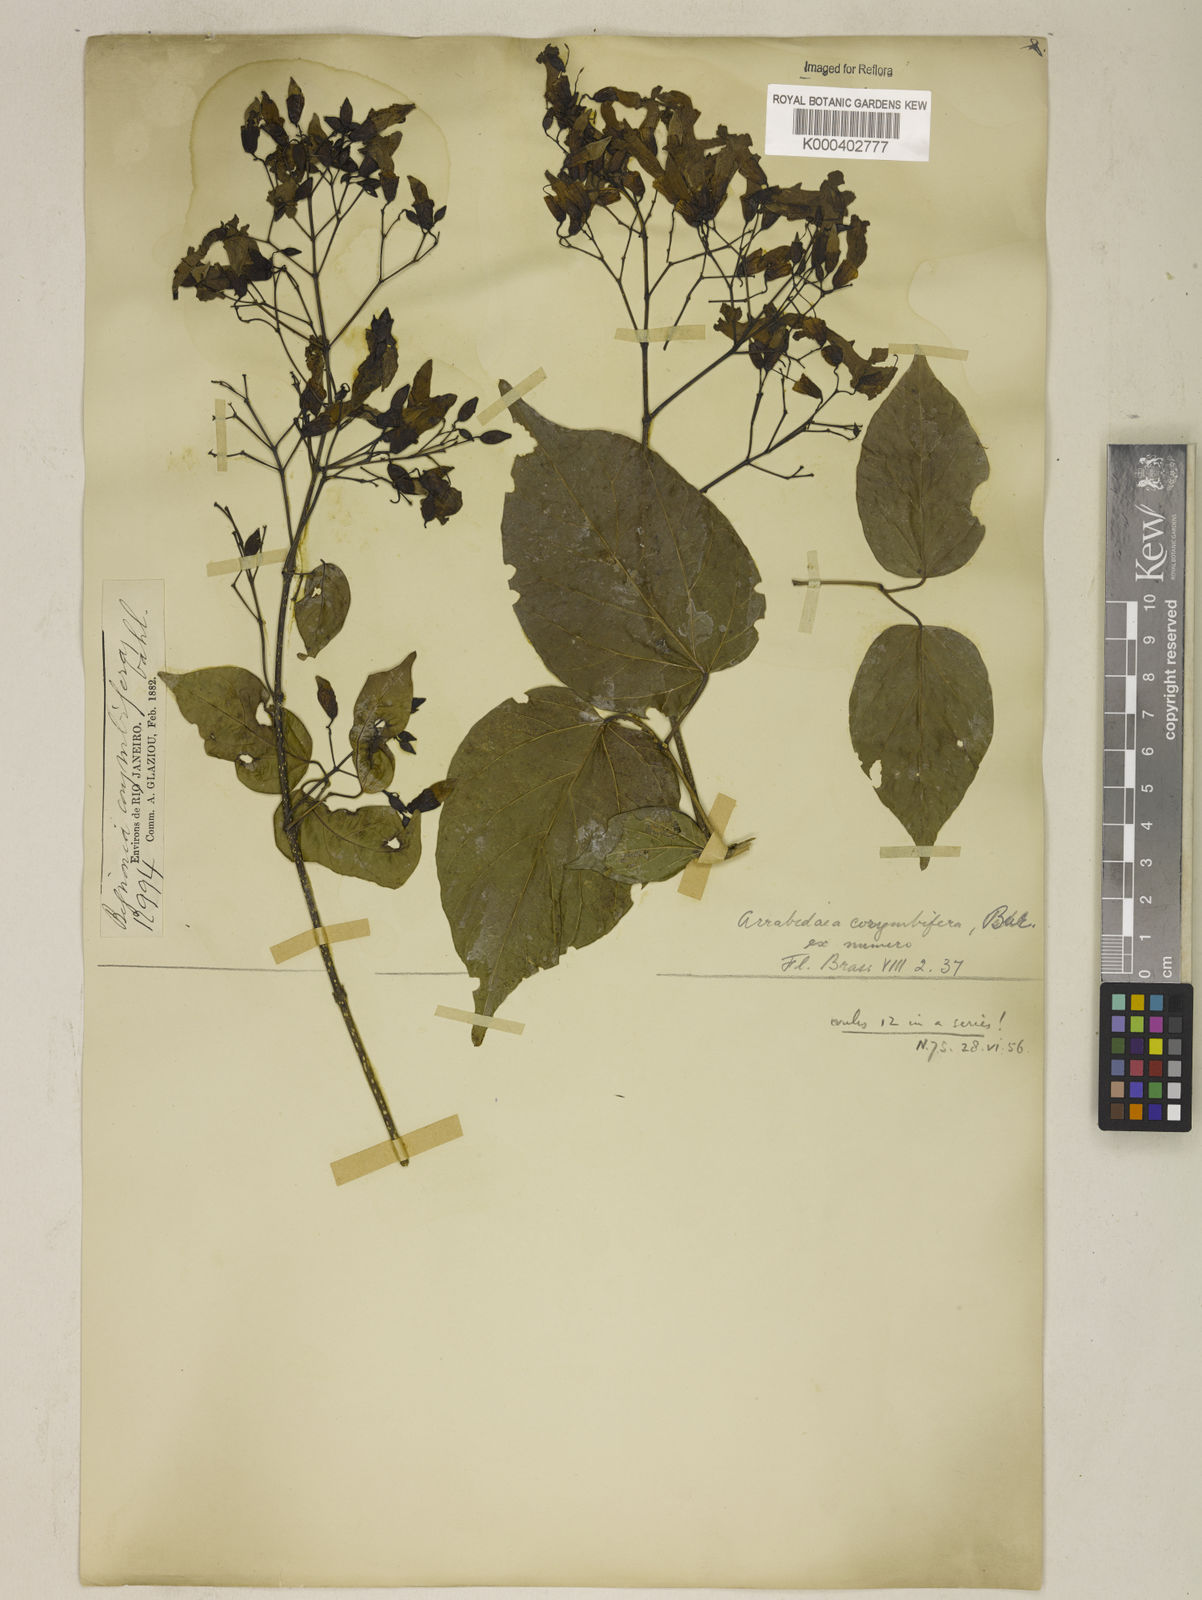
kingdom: Plantae
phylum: Tracheophyta
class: Magnoliopsida
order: Lamiales
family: Bignoniaceae
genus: Tanaecium
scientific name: Tanaecium selloi
